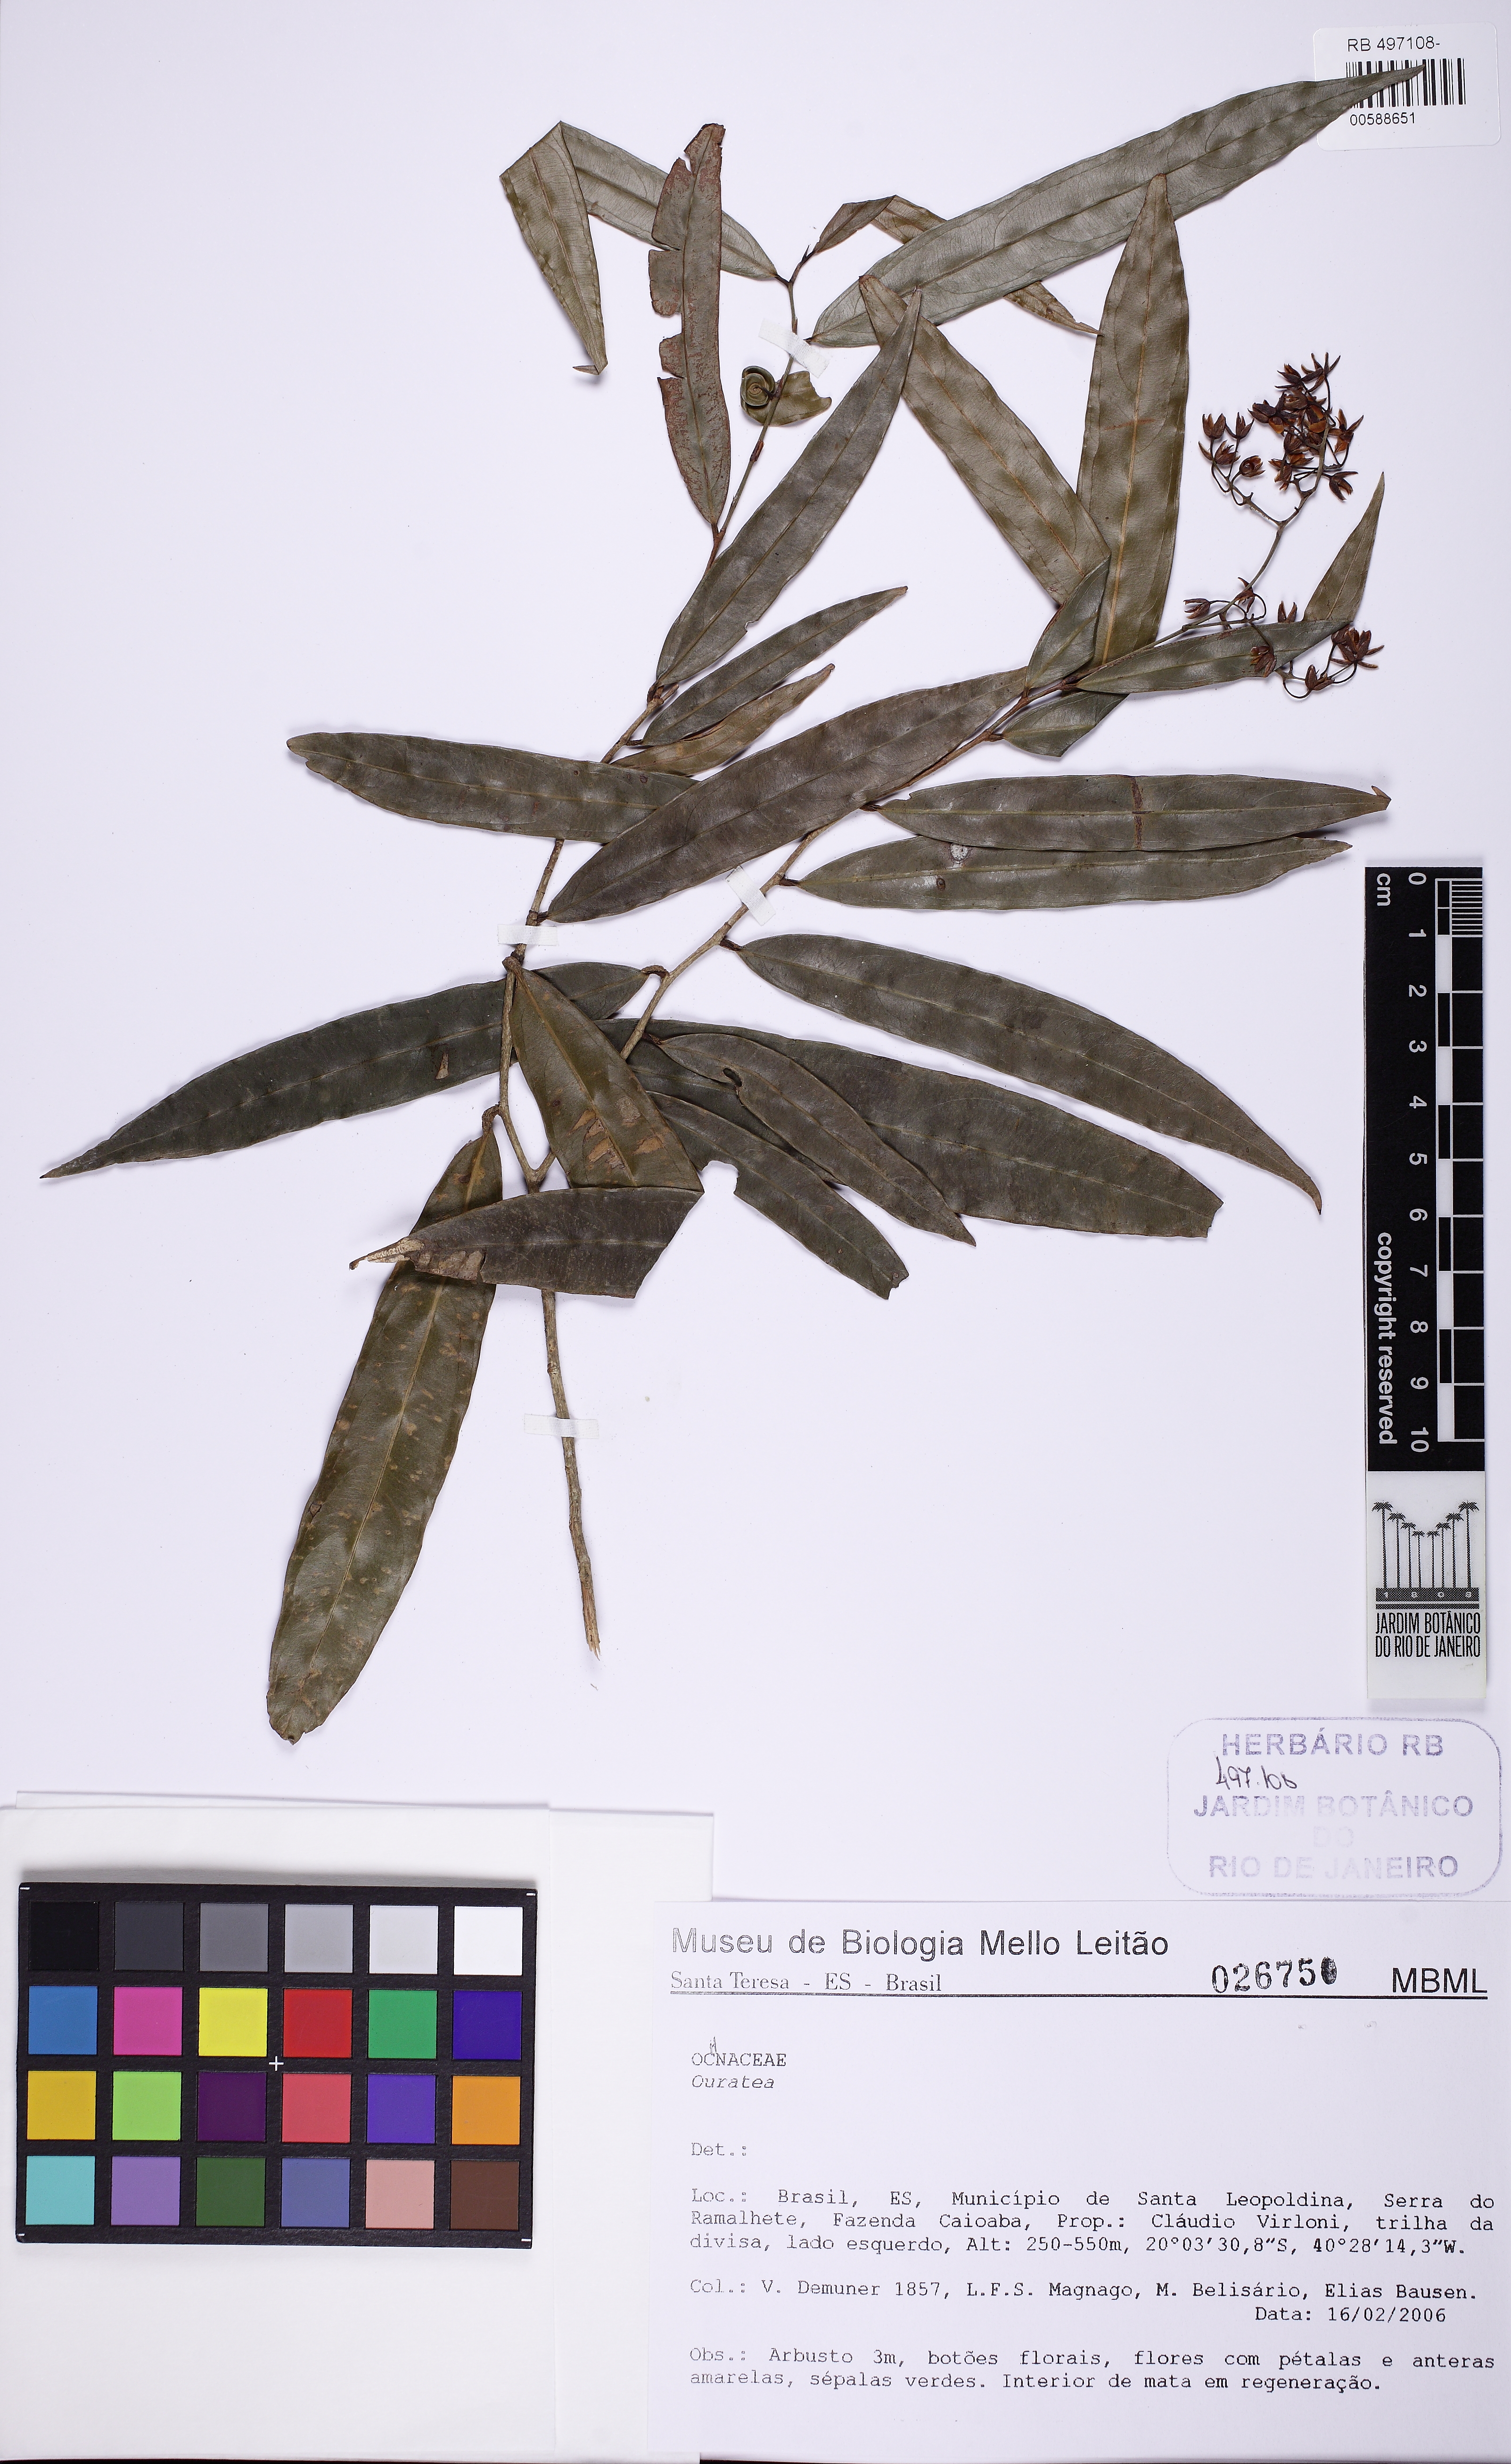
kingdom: Plantae
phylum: Tracheophyta
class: Magnoliopsida
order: Malpighiales
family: Ochnaceae
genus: Ouratea
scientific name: Ouratea
